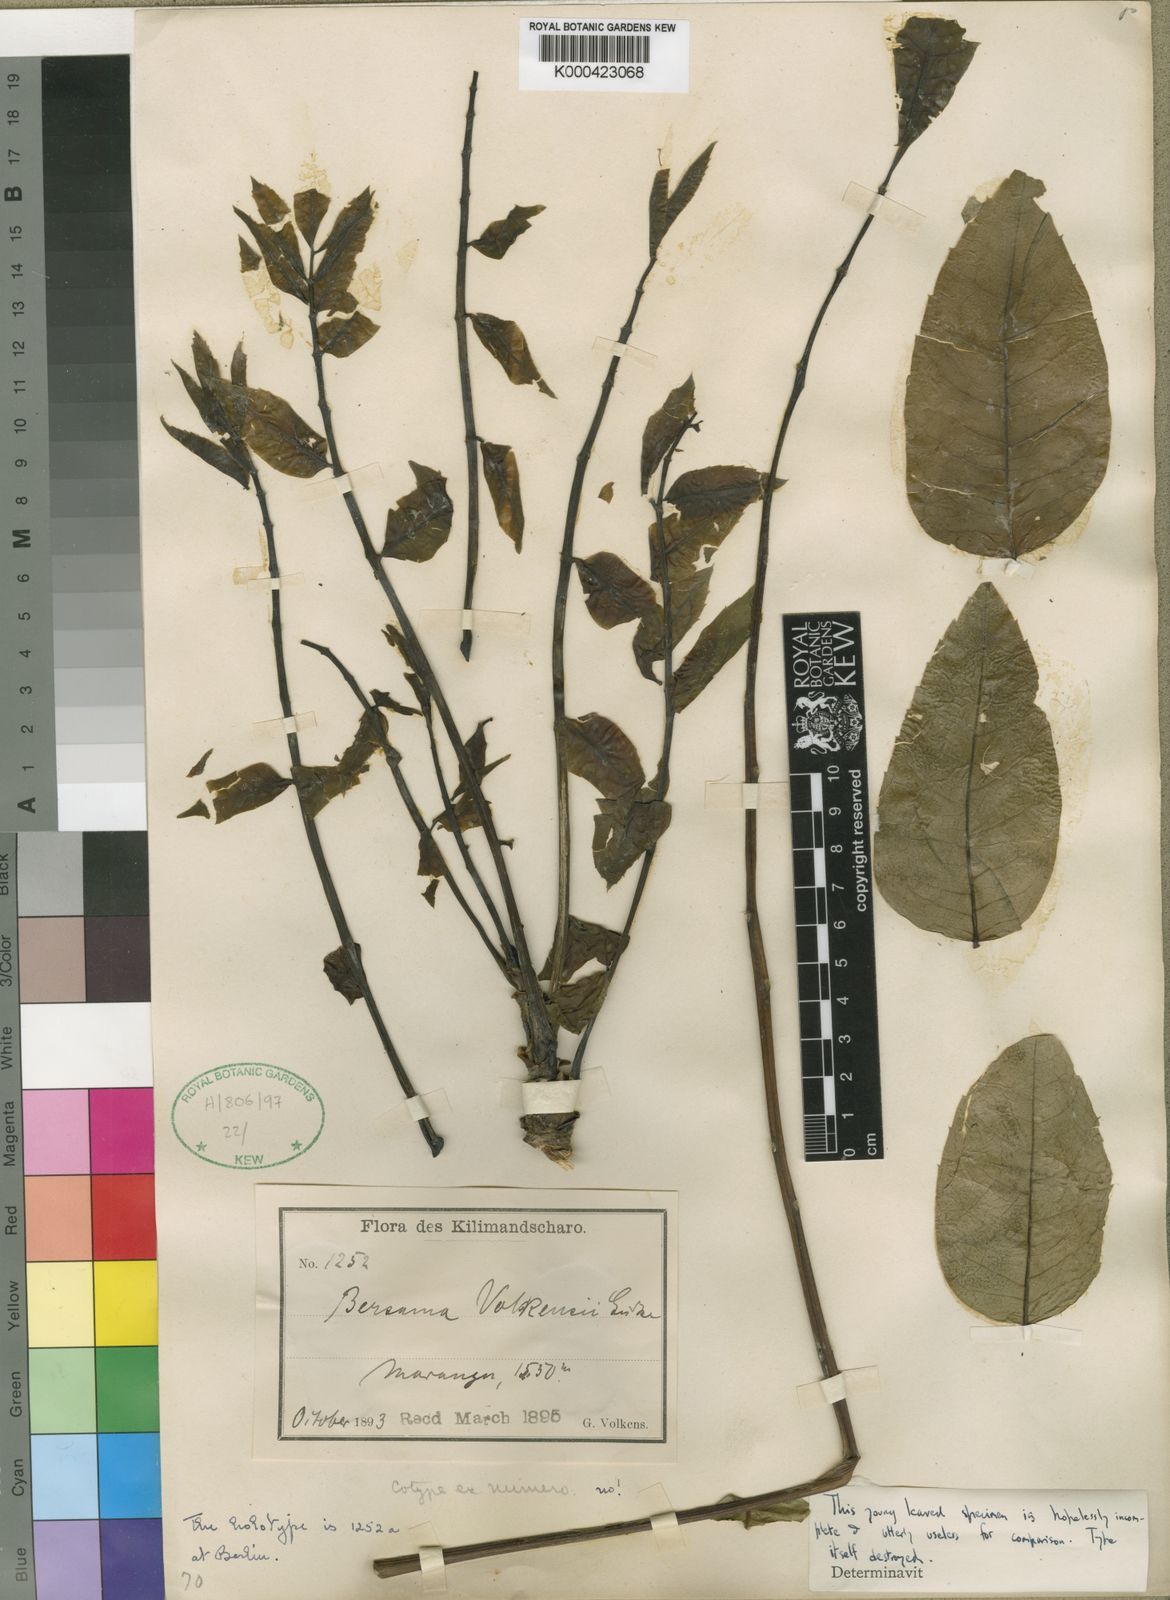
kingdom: Plantae
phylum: Tracheophyta
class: Magnoliopsida
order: Geraniales
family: Melianthaceae
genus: Bersama
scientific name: Bersama abyssinica
